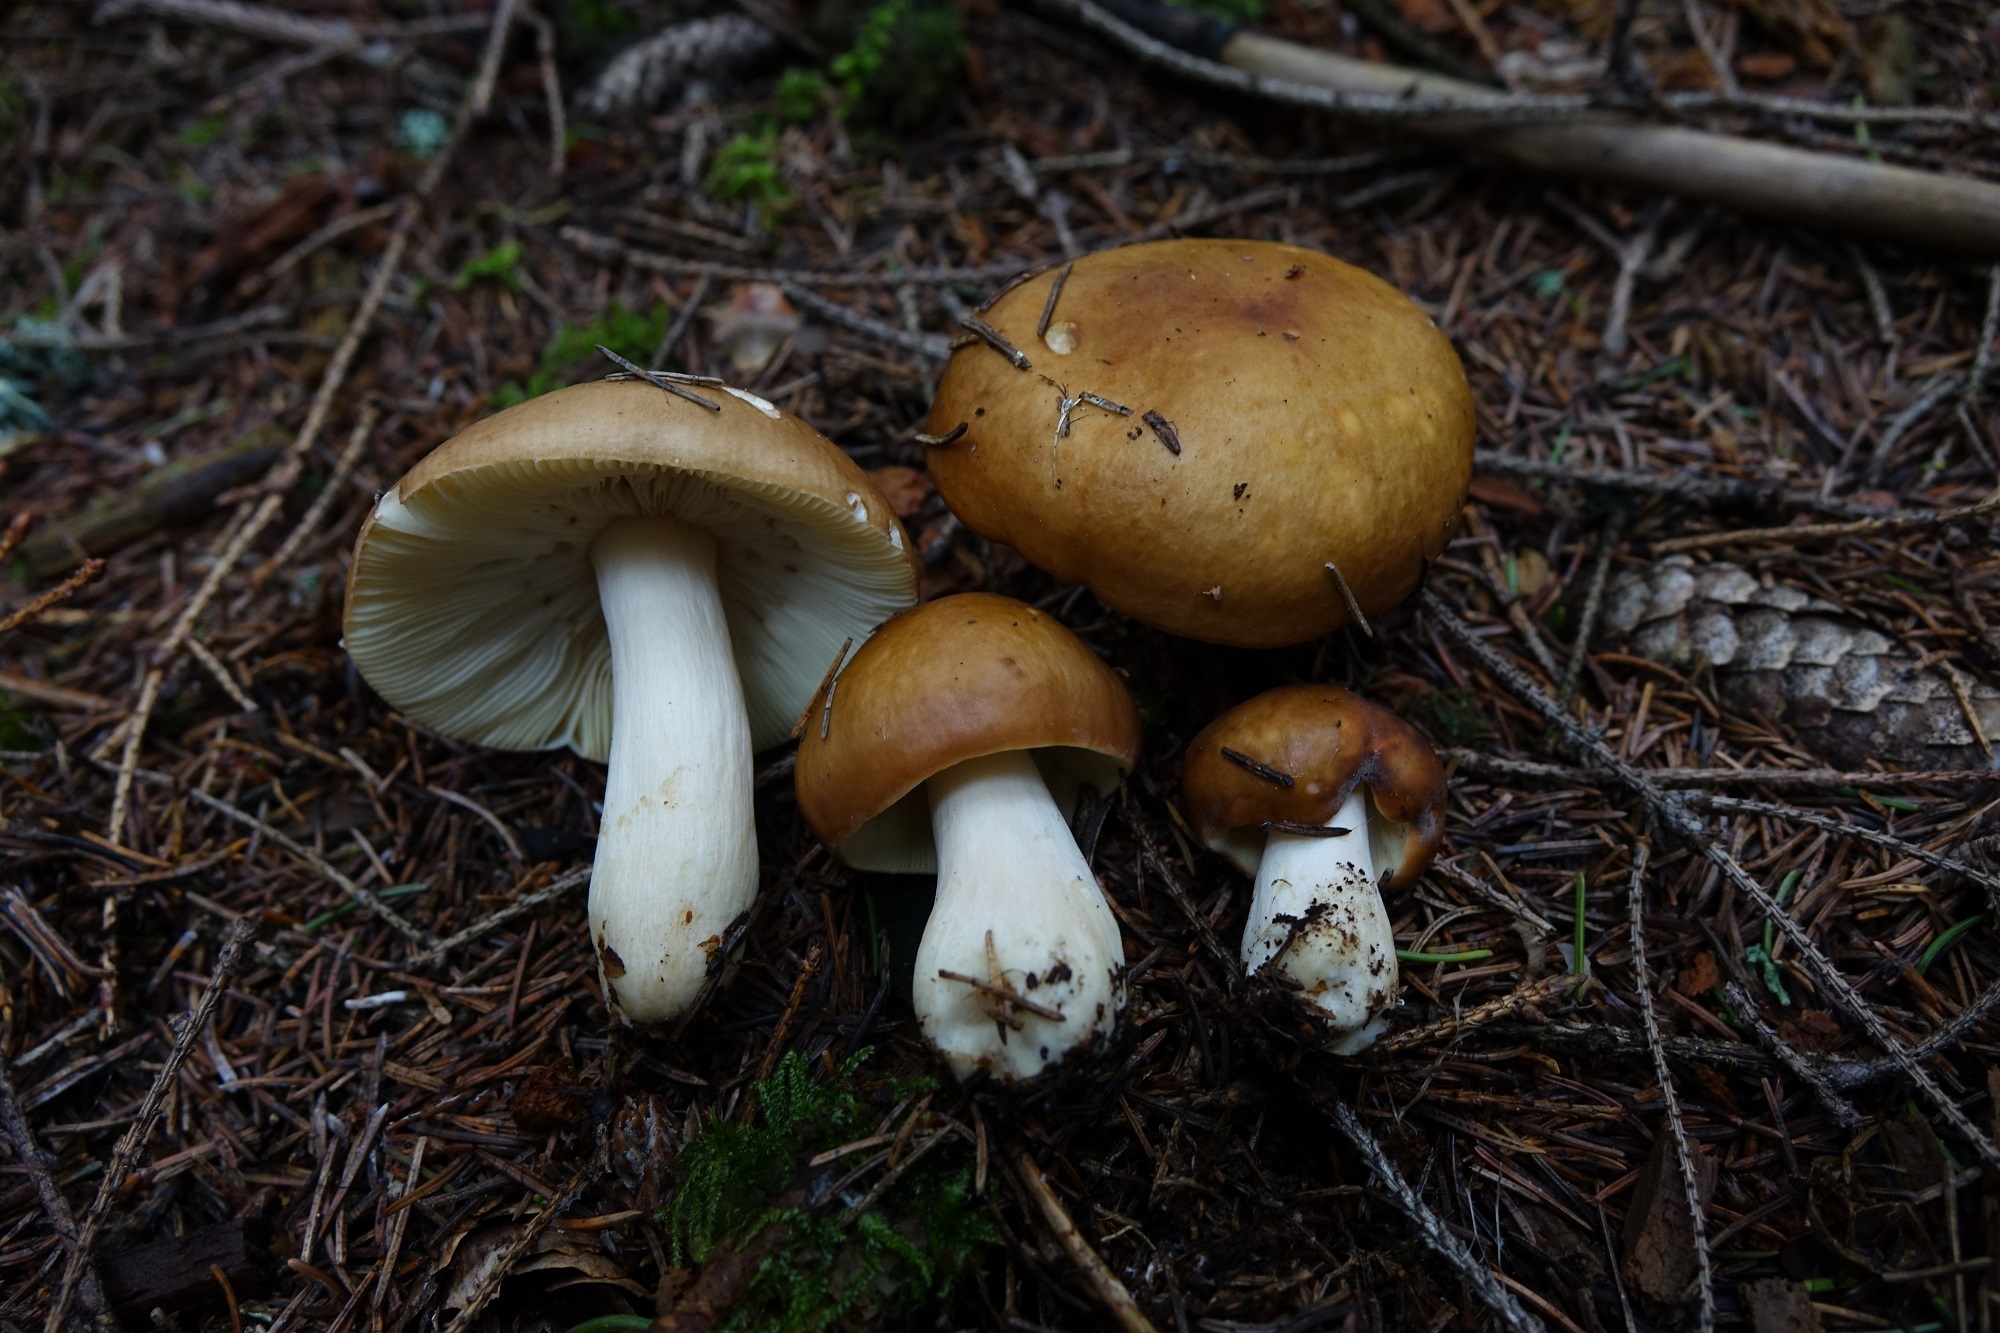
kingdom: Fungi
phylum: Basidiomycota
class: Agaricomycetes
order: Russulales
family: Russulaceae
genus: Russula
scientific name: Russula favrei
